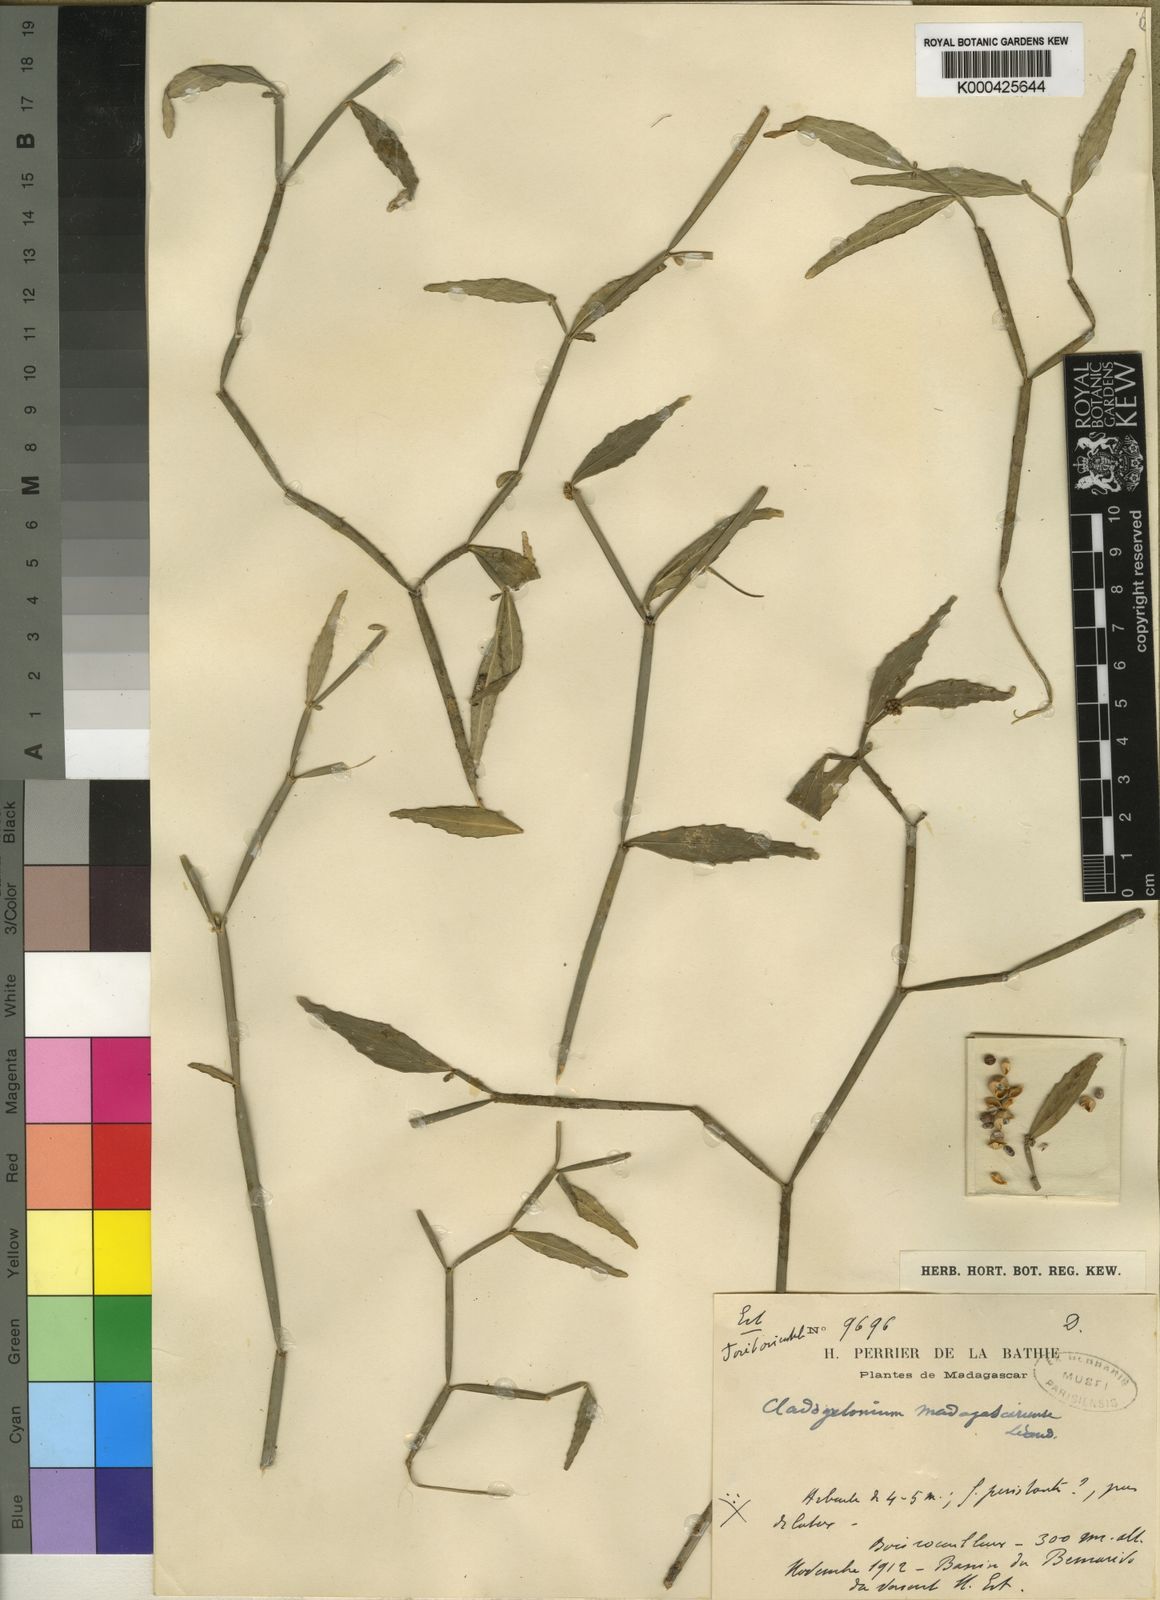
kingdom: Plantae
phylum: Tracheophyta
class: Magnoliopsida
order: Malpighiales
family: Euphorbiaceae
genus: Cladogelonium
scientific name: Cladogelonium madagascariense
